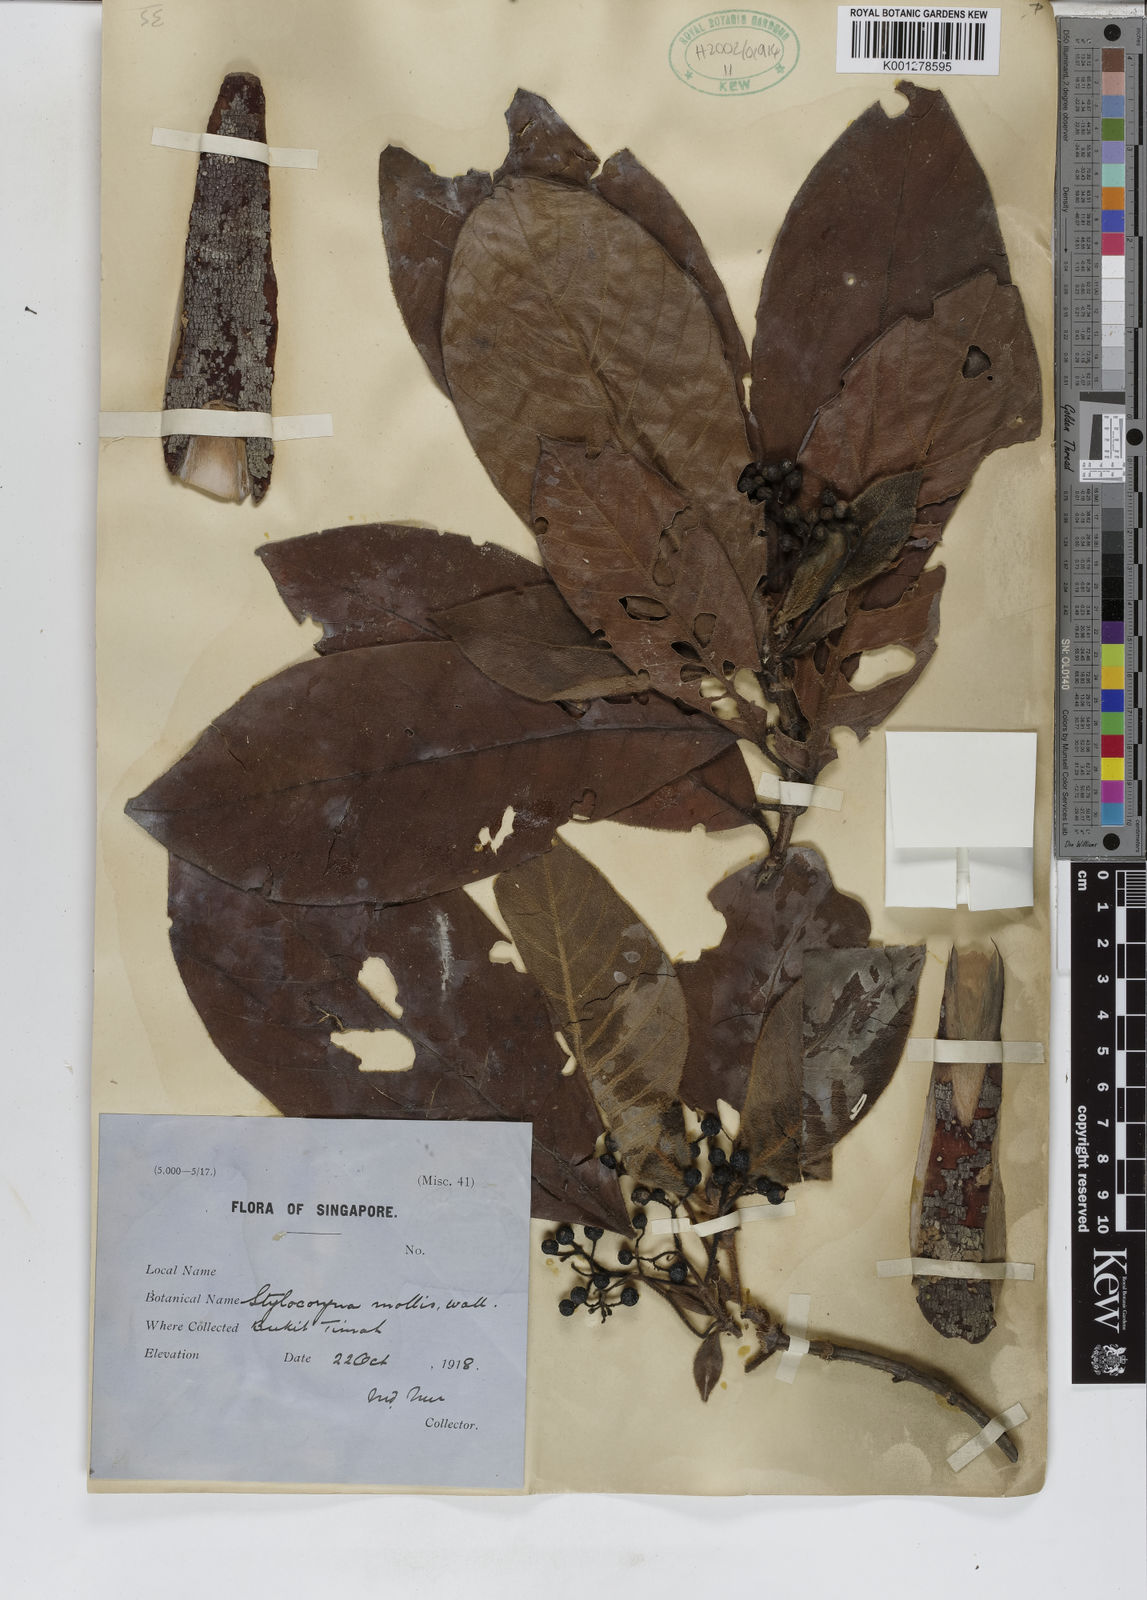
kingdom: Plantae
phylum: Tracheophyta
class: Magnoliopsida
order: Gentianales
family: Rubiaceae
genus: Tarenna
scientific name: Tarenna mollis
